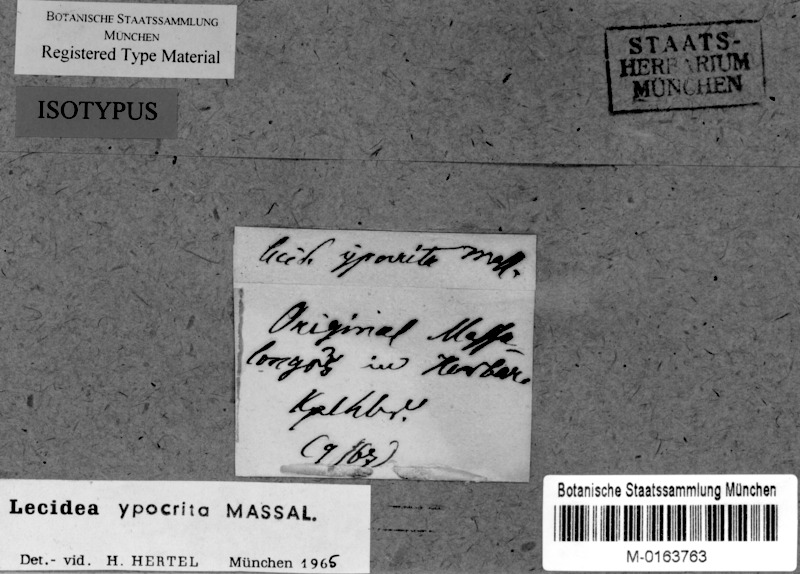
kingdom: Fungi
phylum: Ascomycota
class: Lecanoromycetes
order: Lecideales
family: Lecideaceae
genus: Farnoldia
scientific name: Farnoldia hypocrita
